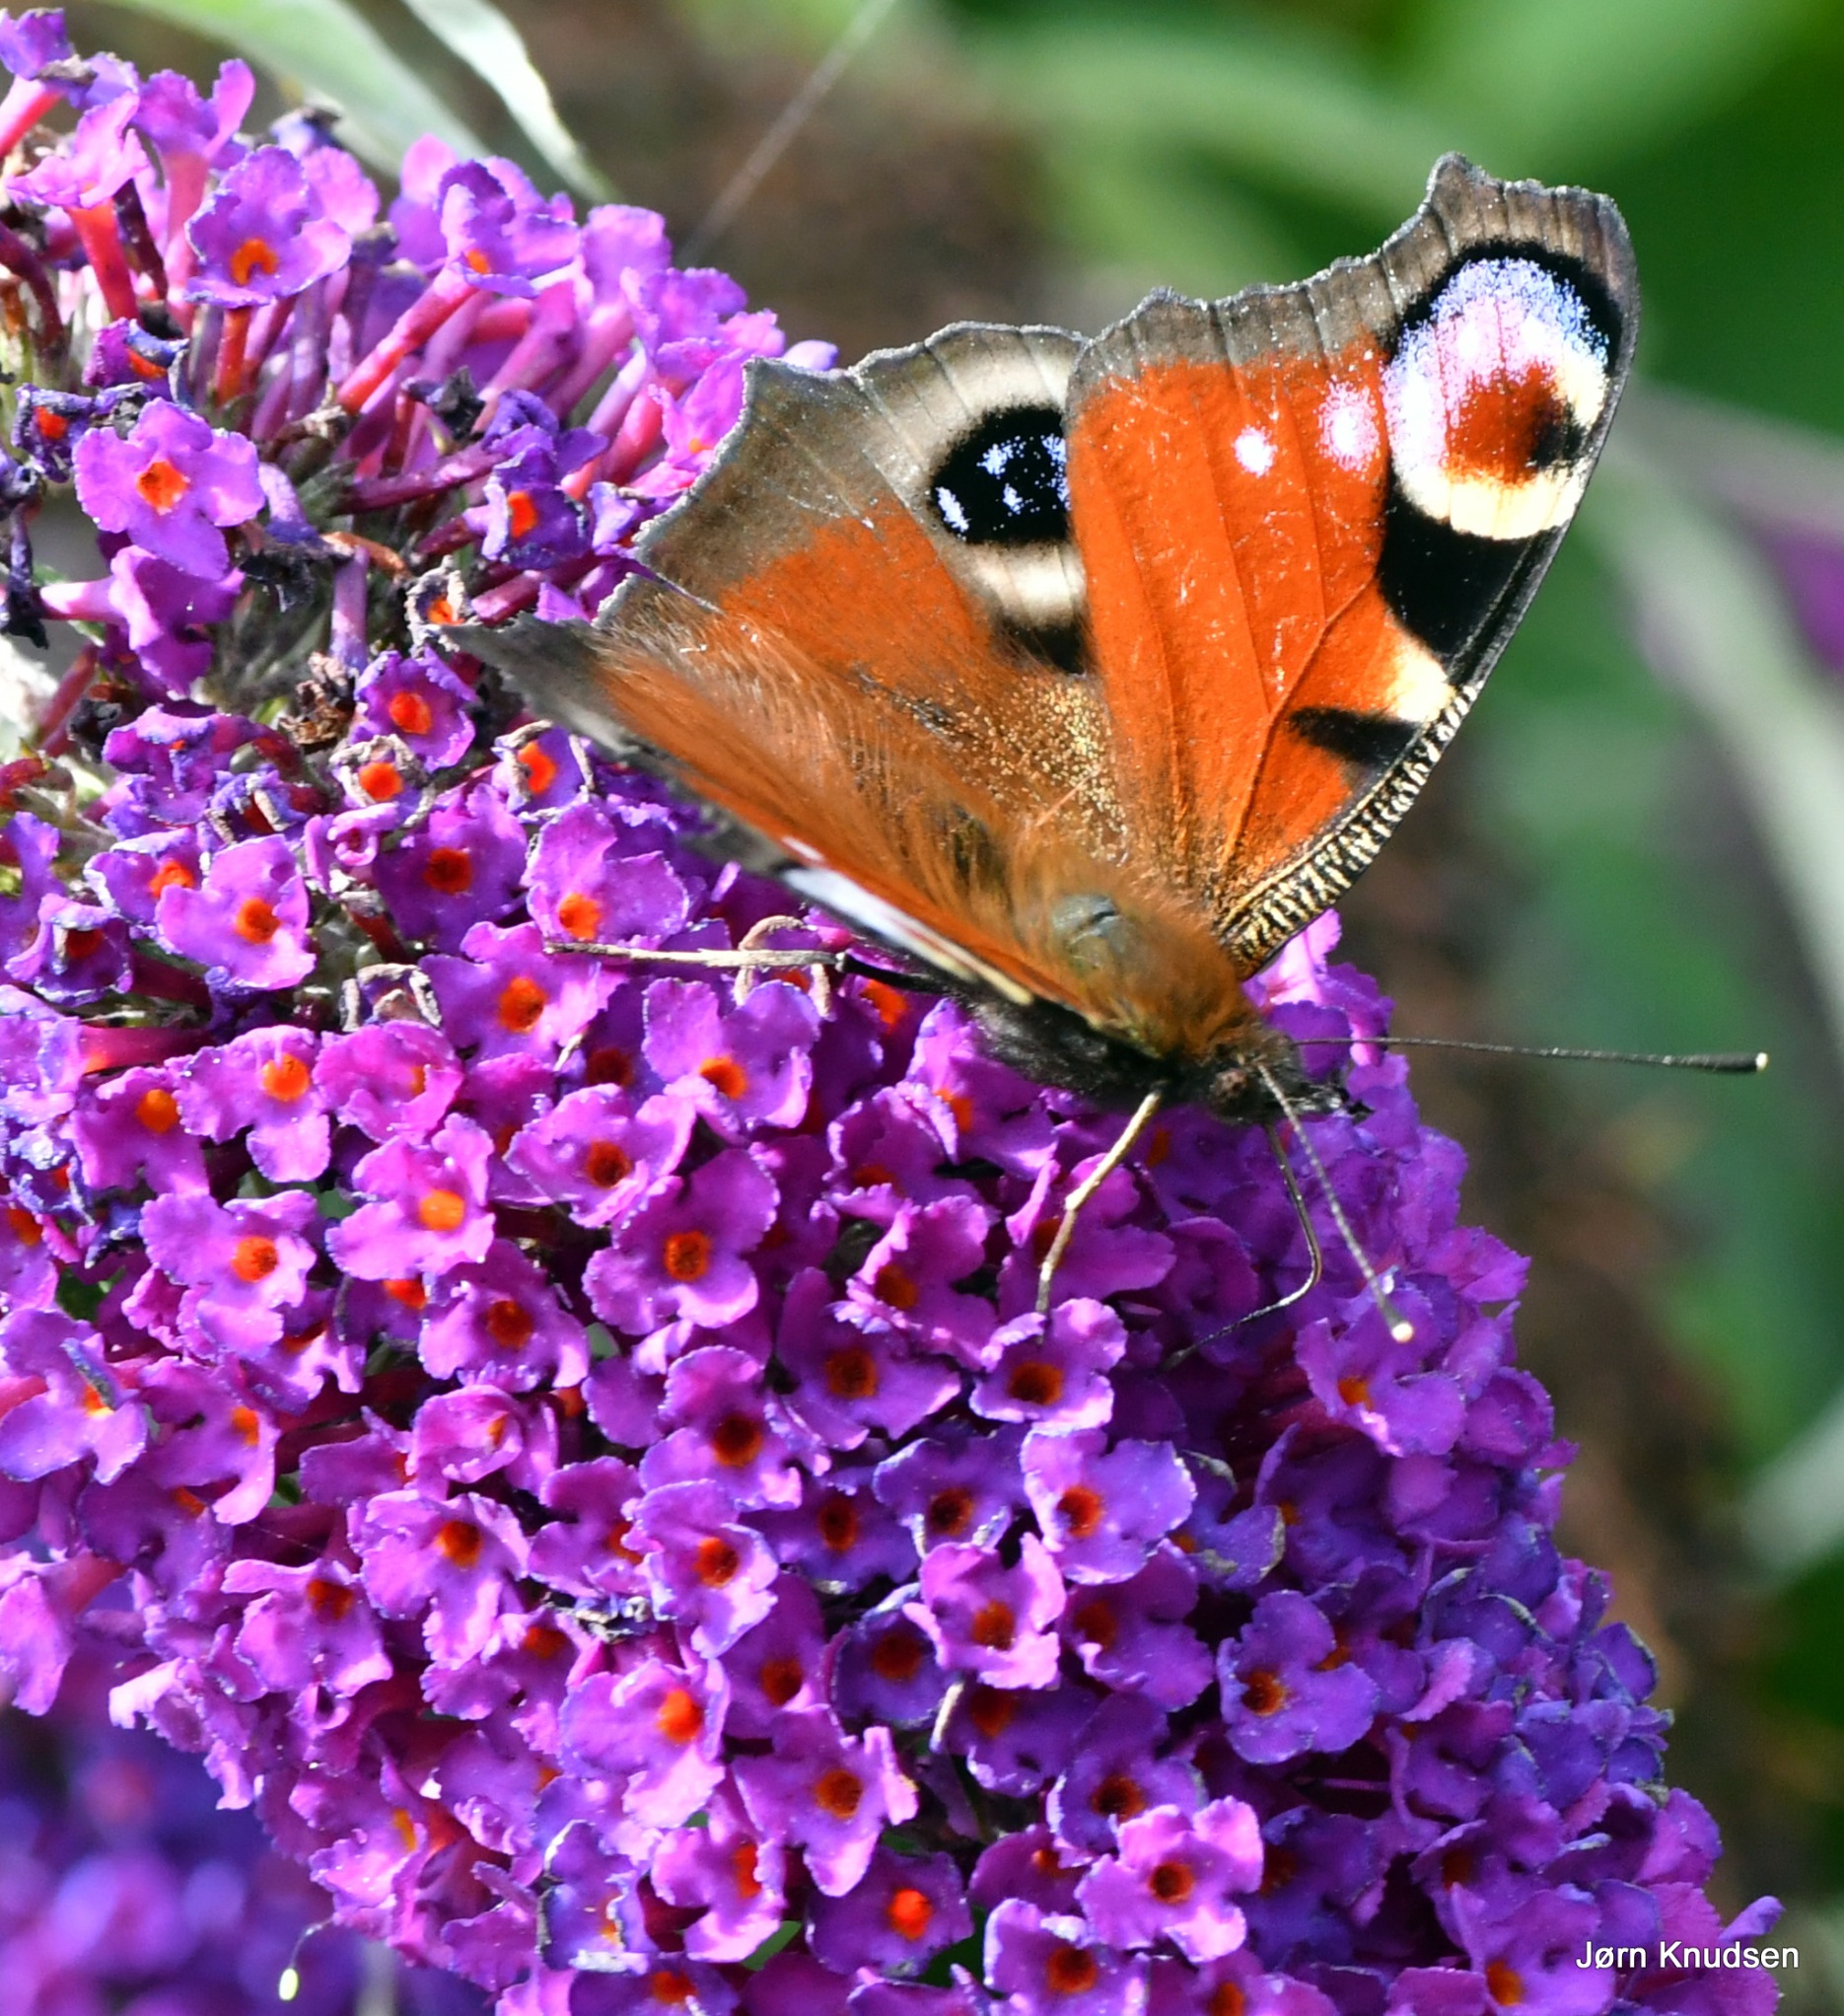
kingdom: Animalia
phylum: Arthropoda
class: Insecta
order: Lepidoptera
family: Nymphalidae
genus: Aglais
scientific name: Aglais io
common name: Dagpåfugleøje
